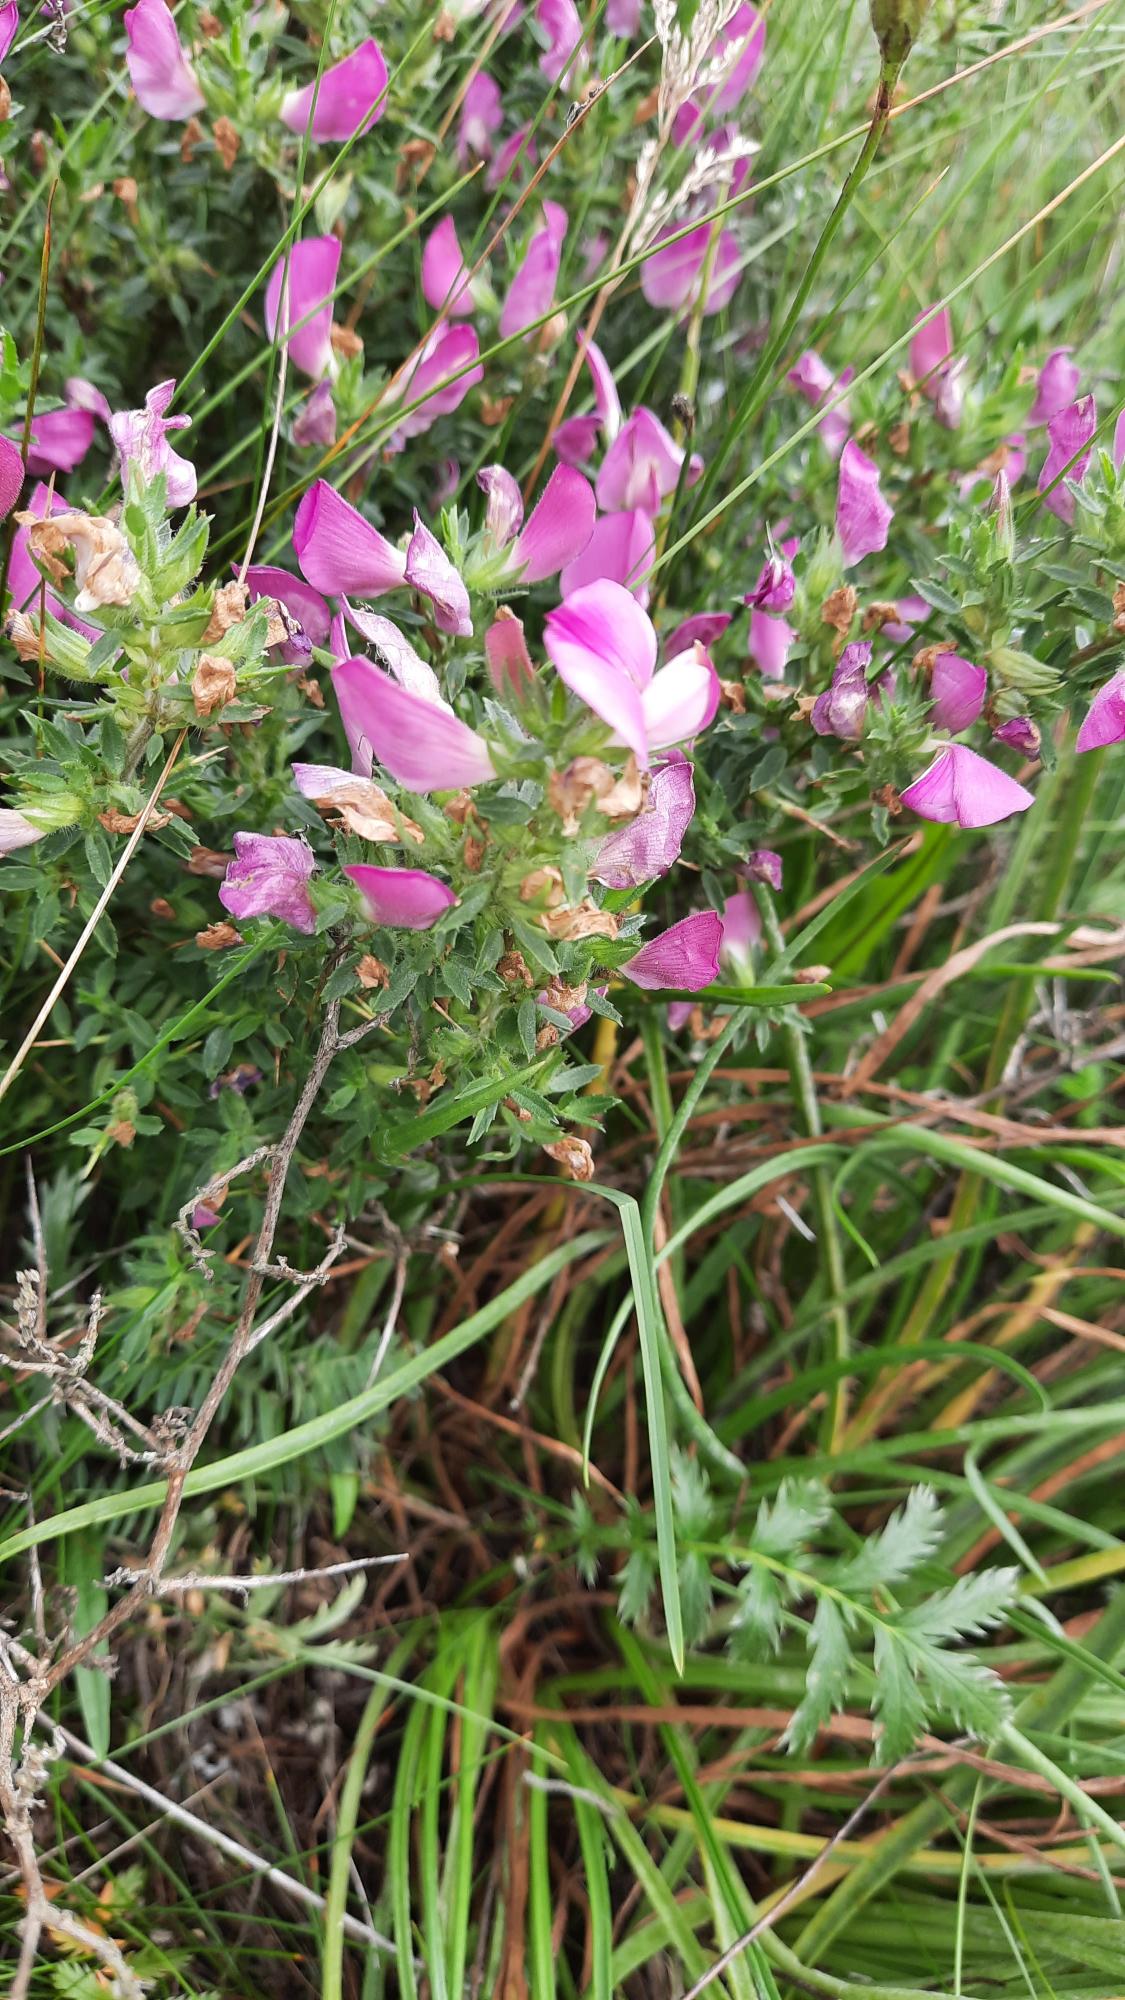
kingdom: Plantae
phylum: Tracheophyta
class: Magnoliopsida
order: Fabales
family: Fabaceae
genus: Ononis
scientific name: Ononis spinosa
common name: Strand-krageklo
